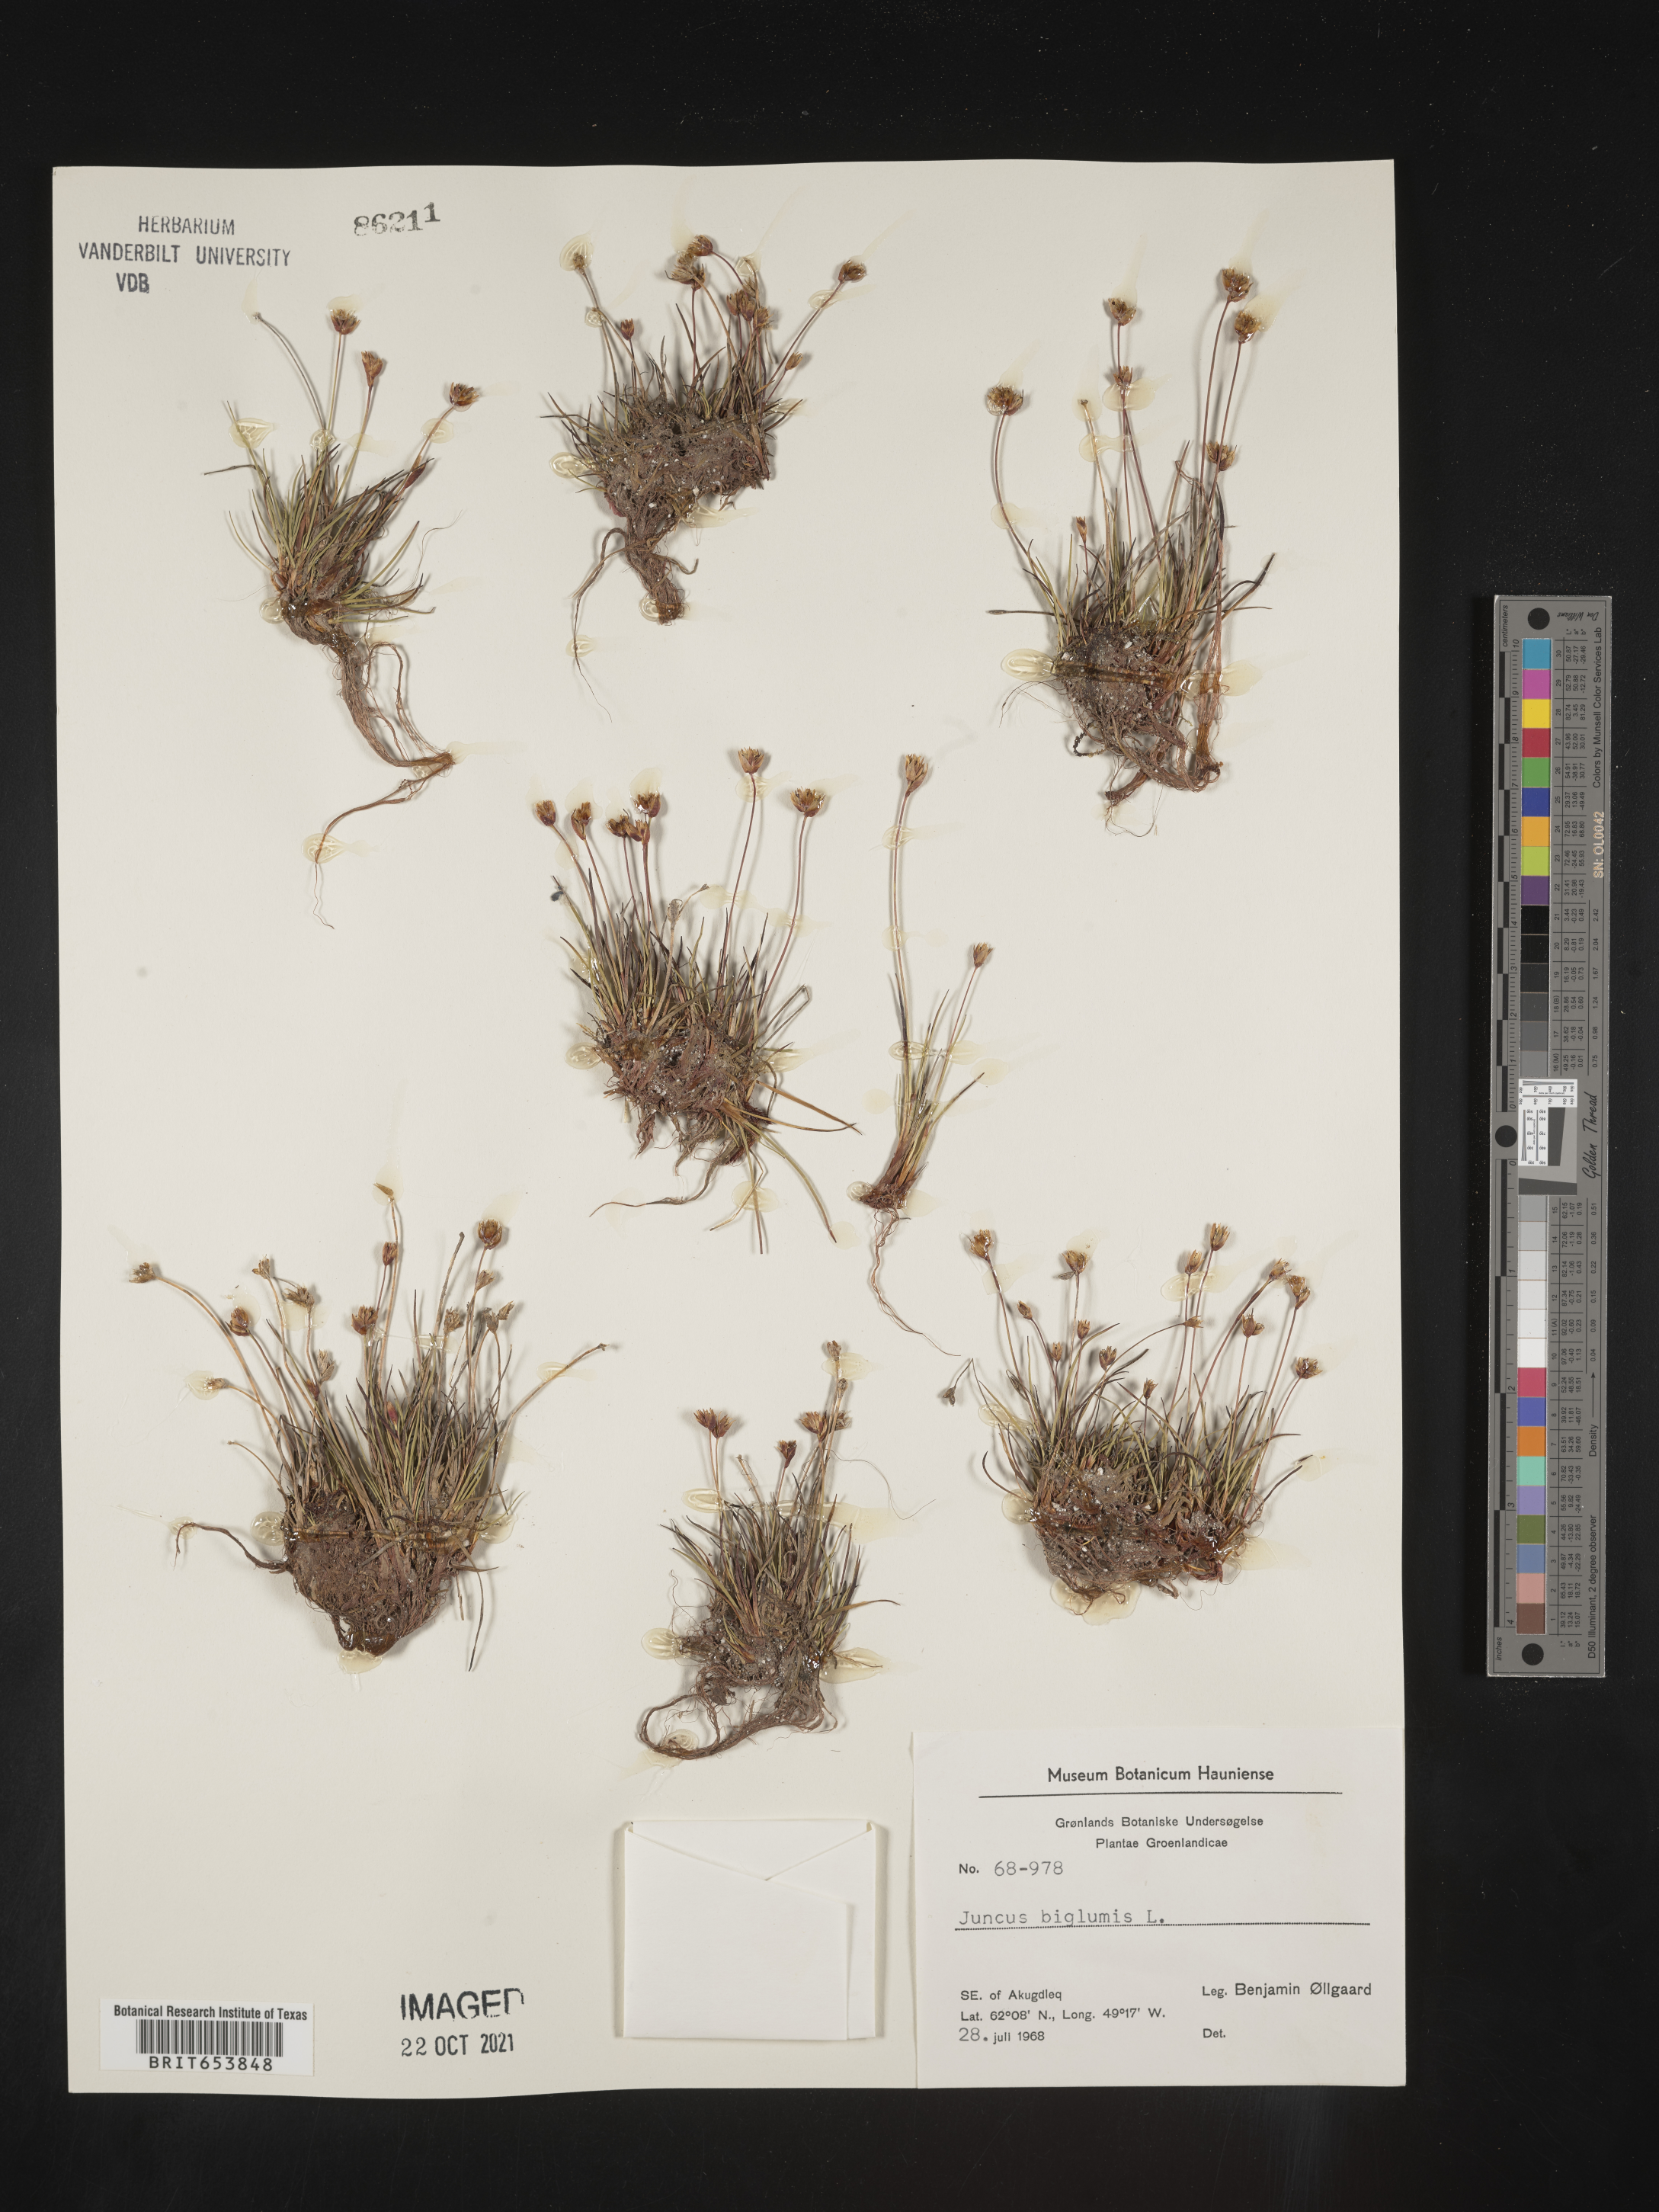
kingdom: Plantae
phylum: Tracheophyta
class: Liliopsida
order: Poales
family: Juncaceae
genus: Juncus
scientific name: Juncus
